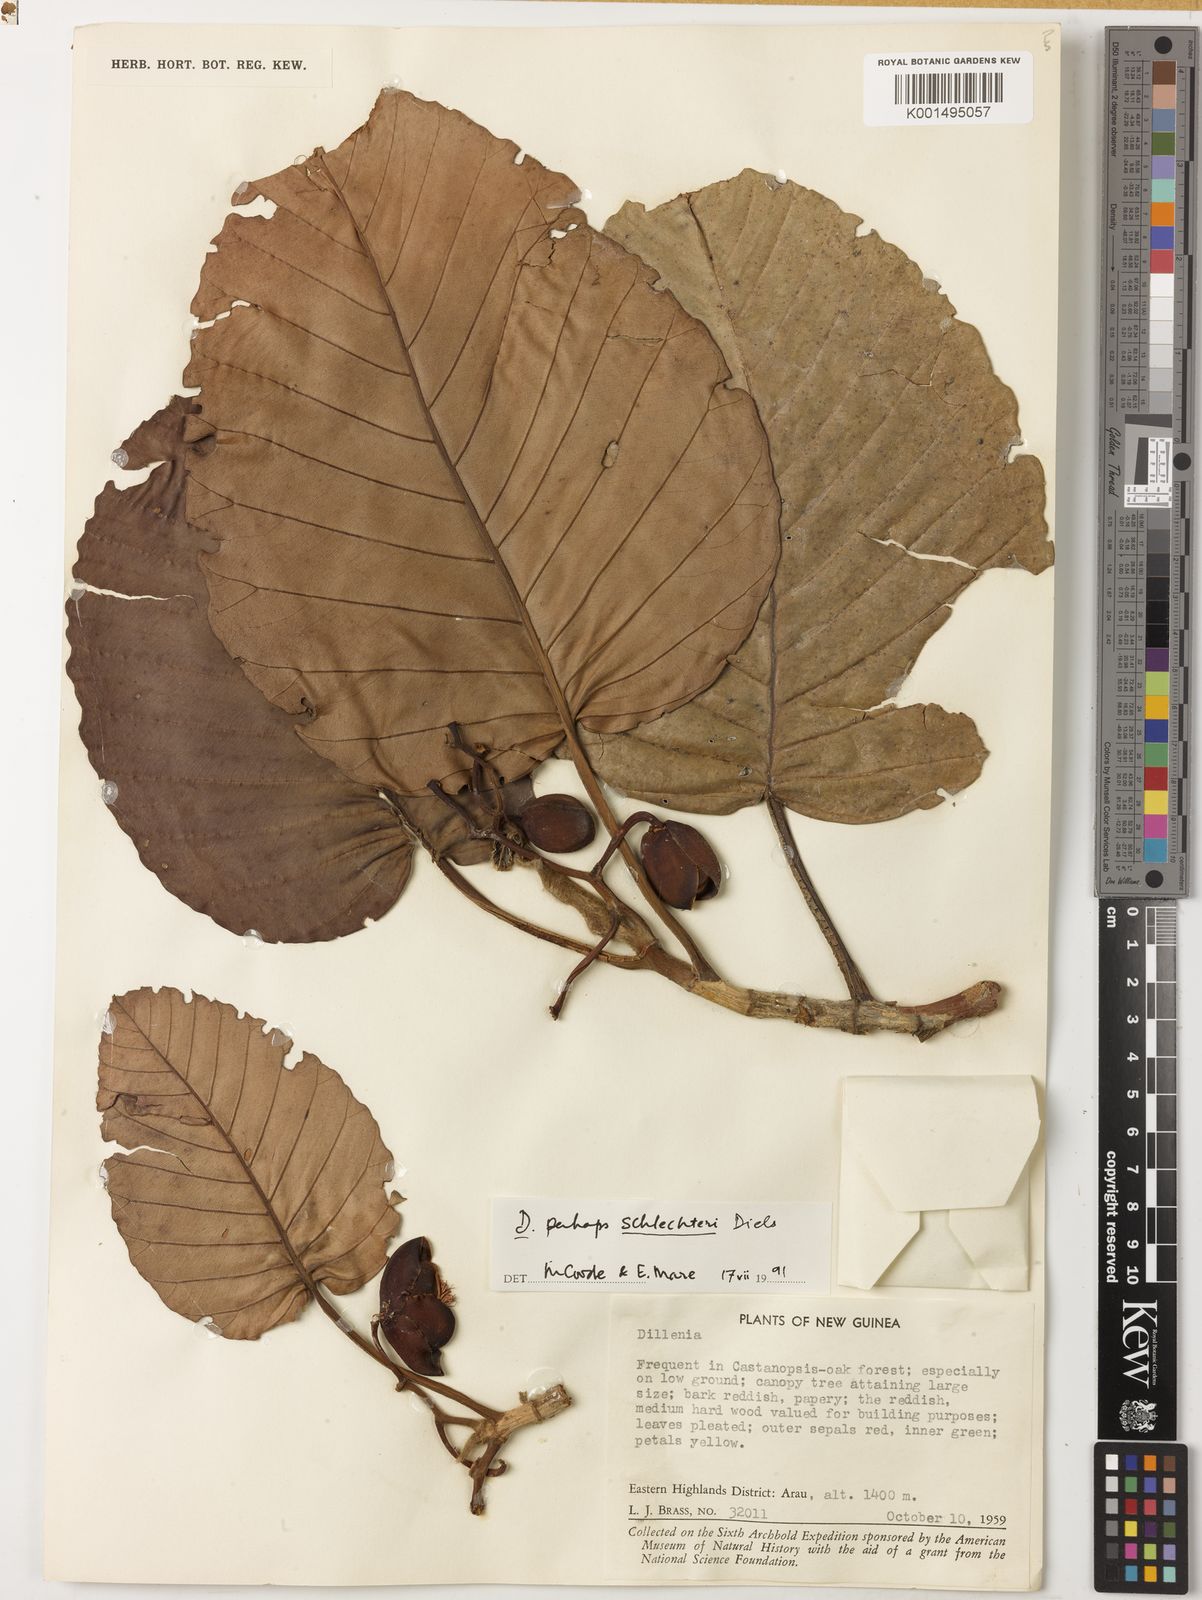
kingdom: Plantae
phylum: Tracheophyta
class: Magnoliopsida
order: Dilleniales
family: Dilleniaceae
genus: Dillenia
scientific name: Dillenia schlechteri
